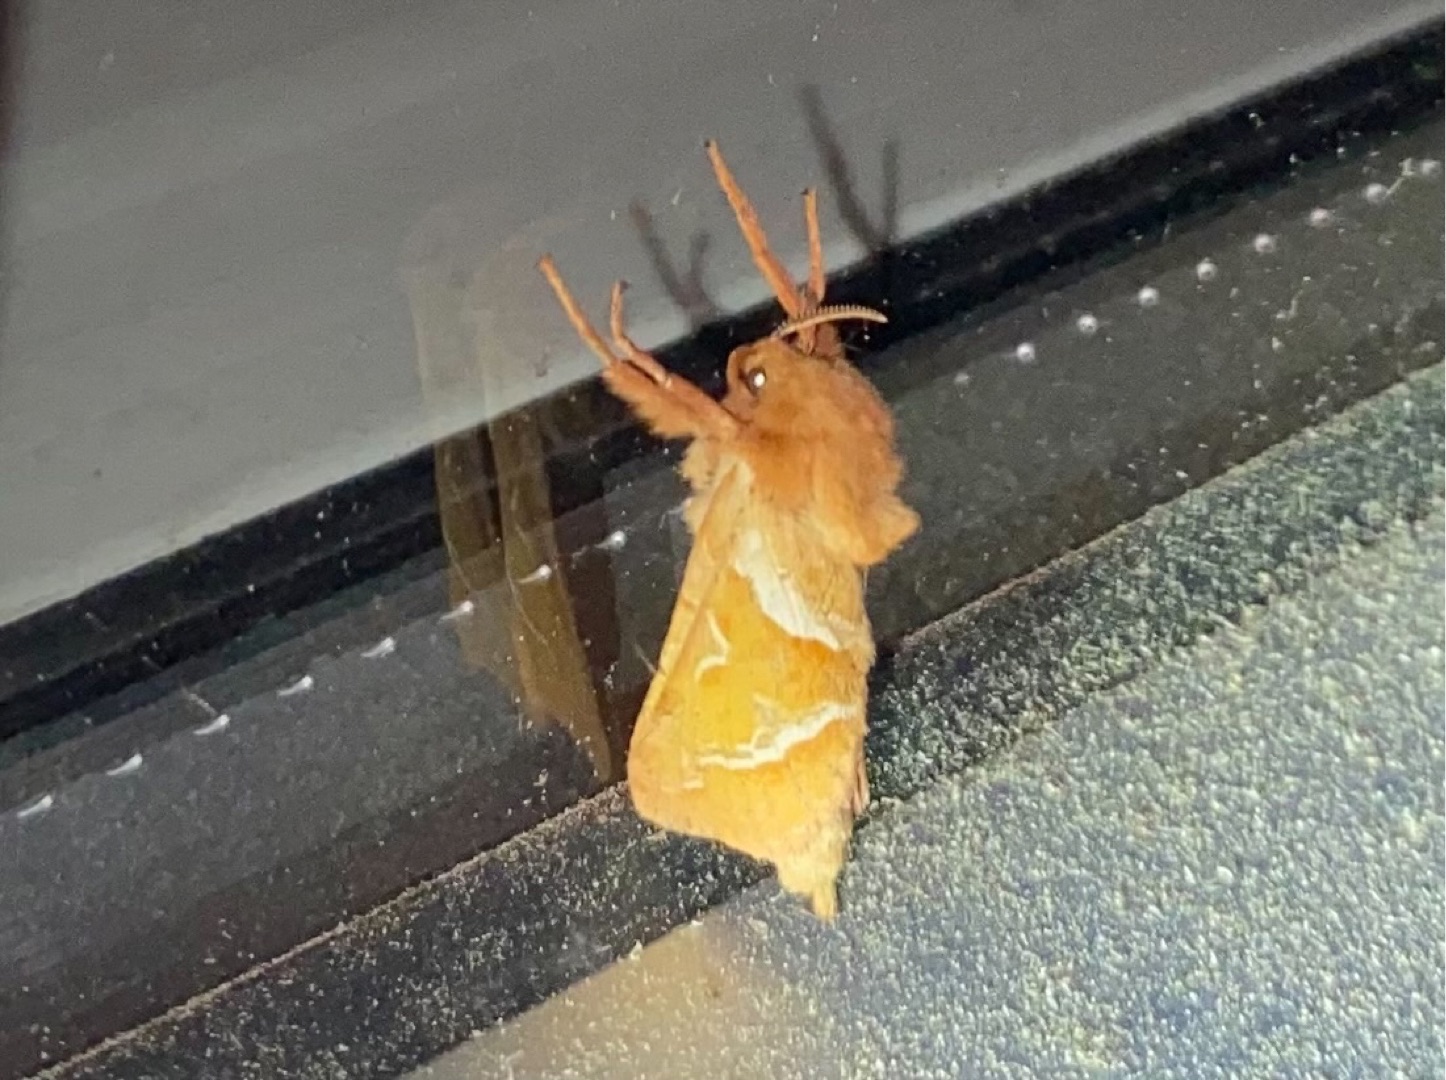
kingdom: Animalia
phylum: Arthropoda
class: Insecta
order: Lepidoptera
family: Hepialidae
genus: Triodia
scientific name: Triodia sylvina
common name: Skræpperodæder
